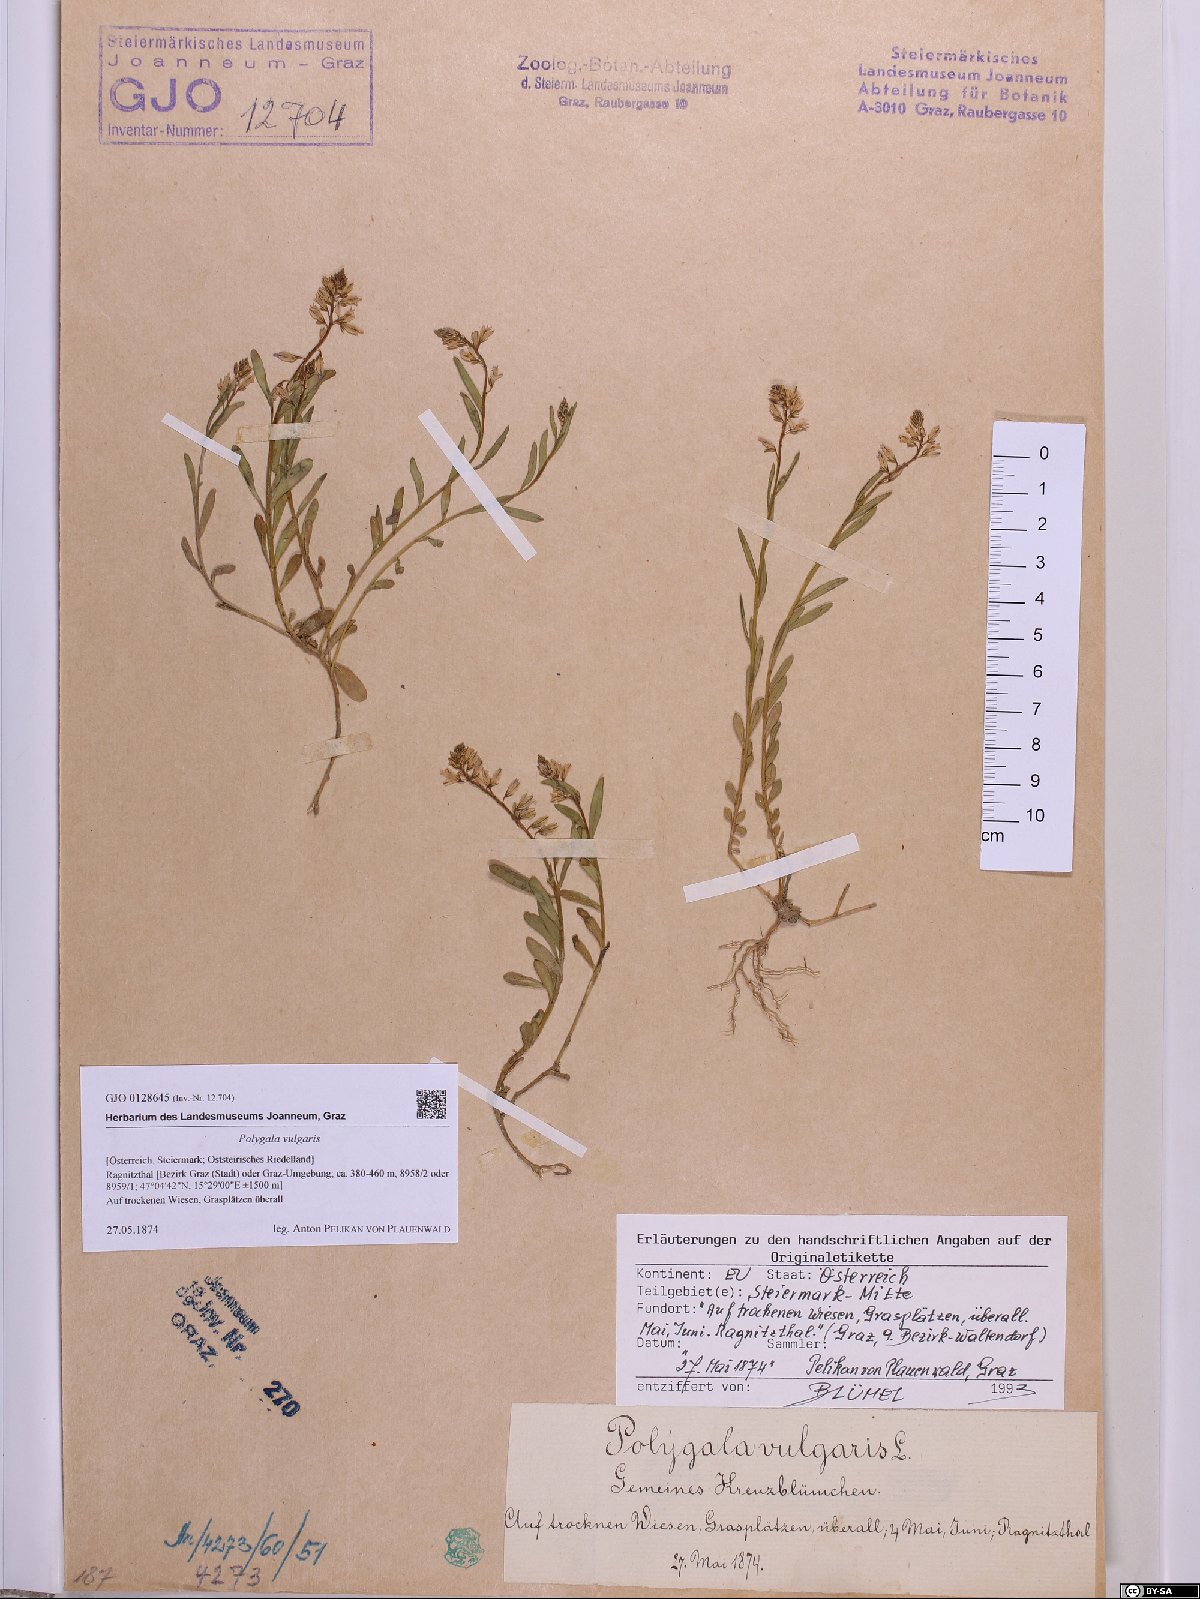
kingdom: Plantae
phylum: Tracheophyta
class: Magnoliopsida
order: Fabales
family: Polygalaceae
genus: Polygala
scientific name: Polygala vulgaris
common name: Common milkwort
